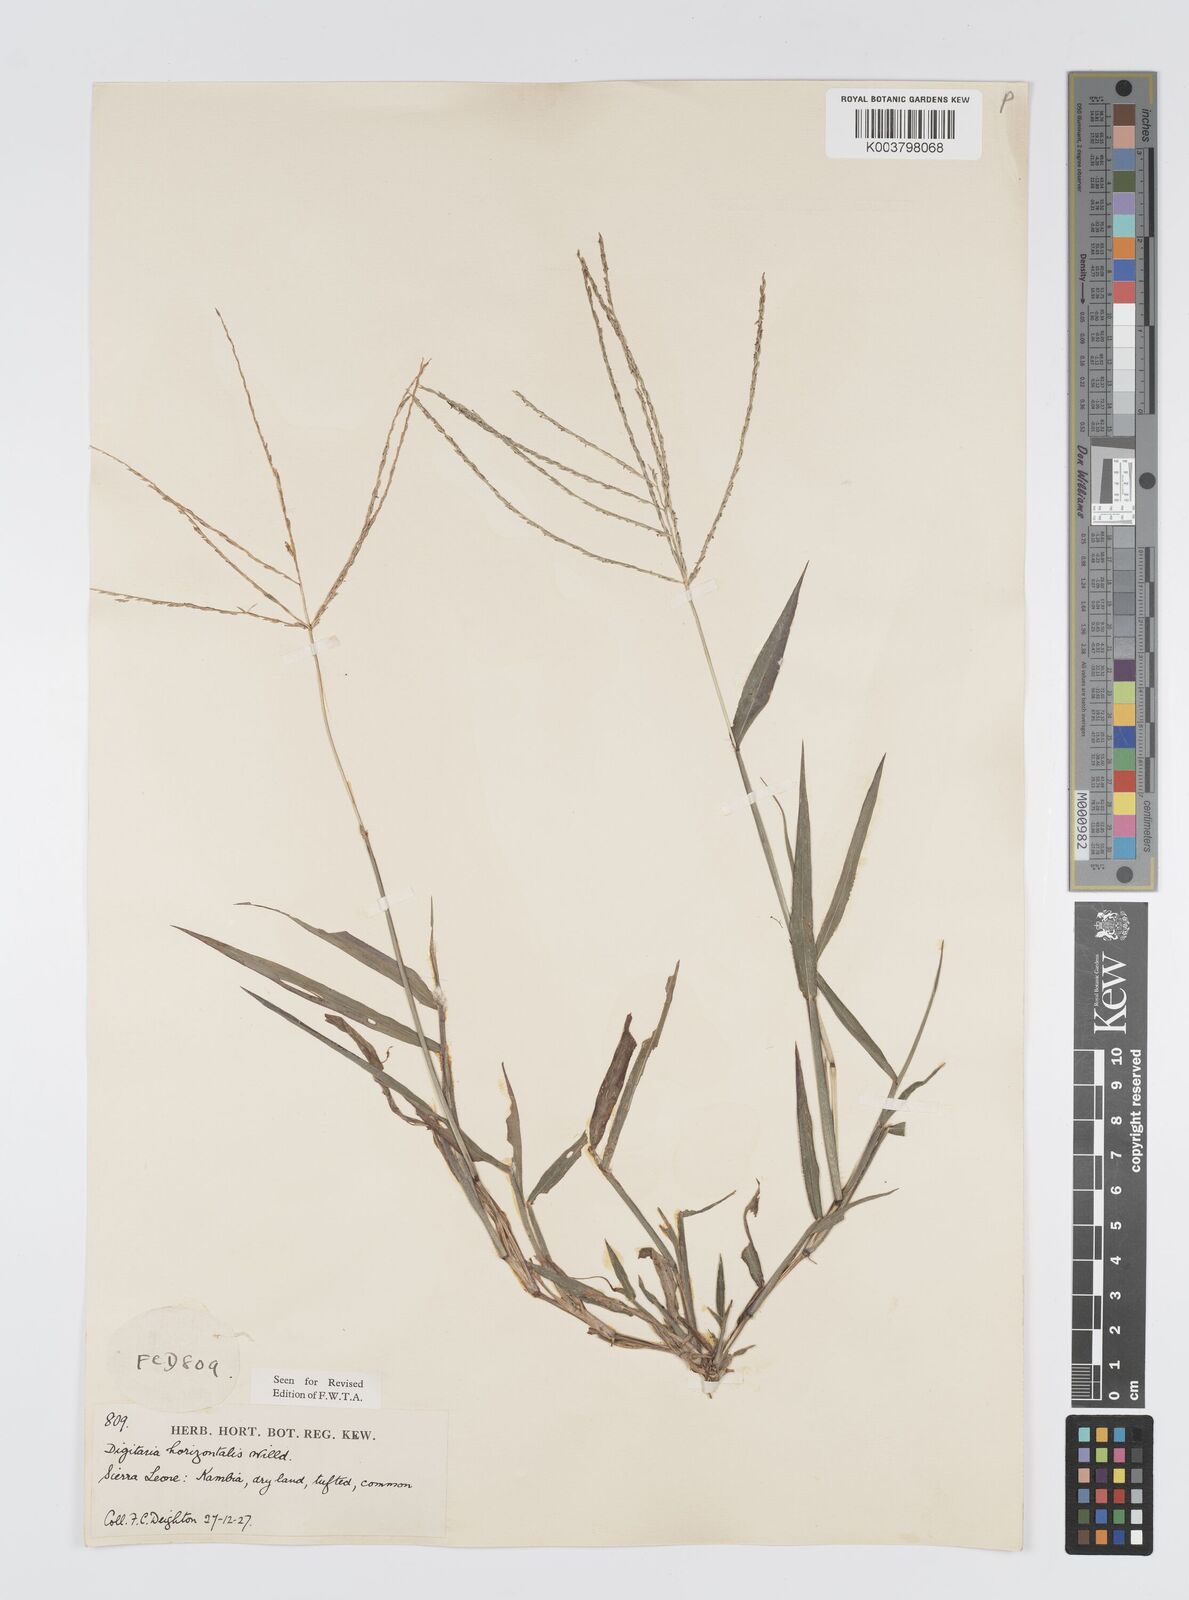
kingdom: Plantae
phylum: Tracheophyta
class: Liliopsida
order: Poales
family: Poaceae
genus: Digitaria
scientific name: Digitaria horizontalis
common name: Jamaican crabgrass
